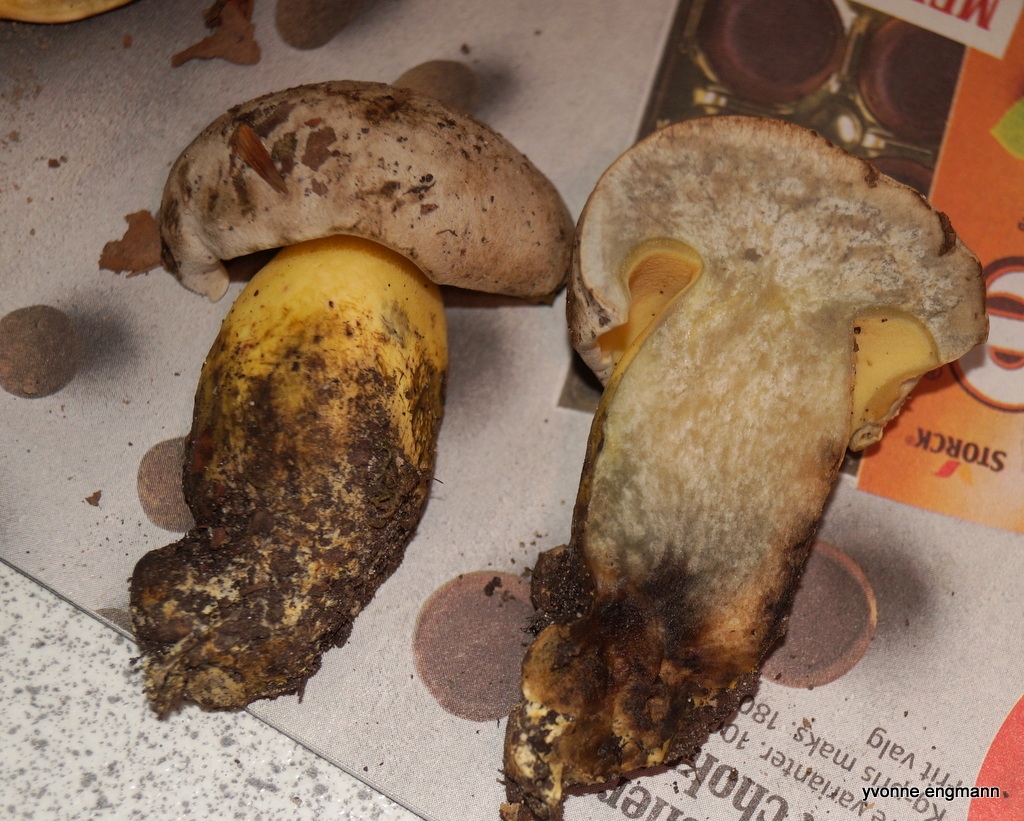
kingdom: Fungi
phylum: Basidiomycota
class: Agaricomycetes
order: Boletales
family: Boletaceae
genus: Caloboletus
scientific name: Caloboletus radicans
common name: rod-rørhat
